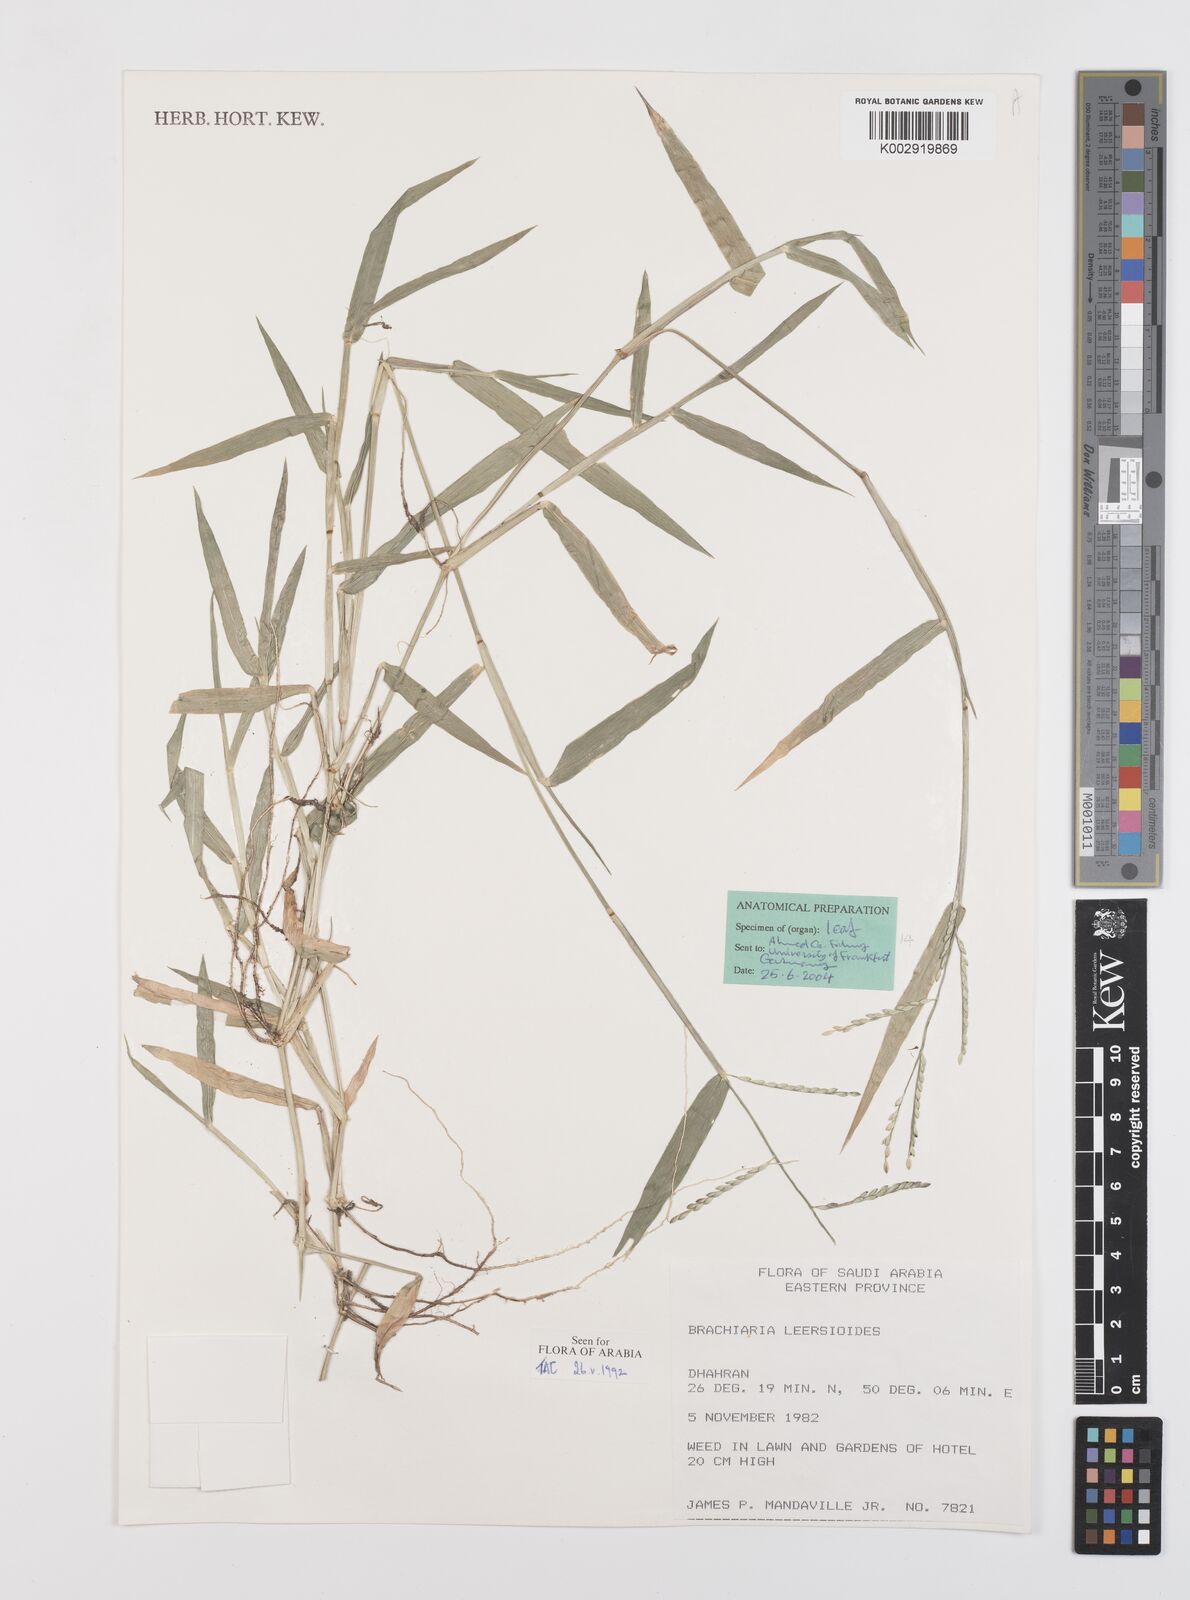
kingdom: Plantae
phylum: Tracheophyta
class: Liliopsida
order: Poales
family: Poaceae
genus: Urochloa
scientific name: Urochloa leersioides
